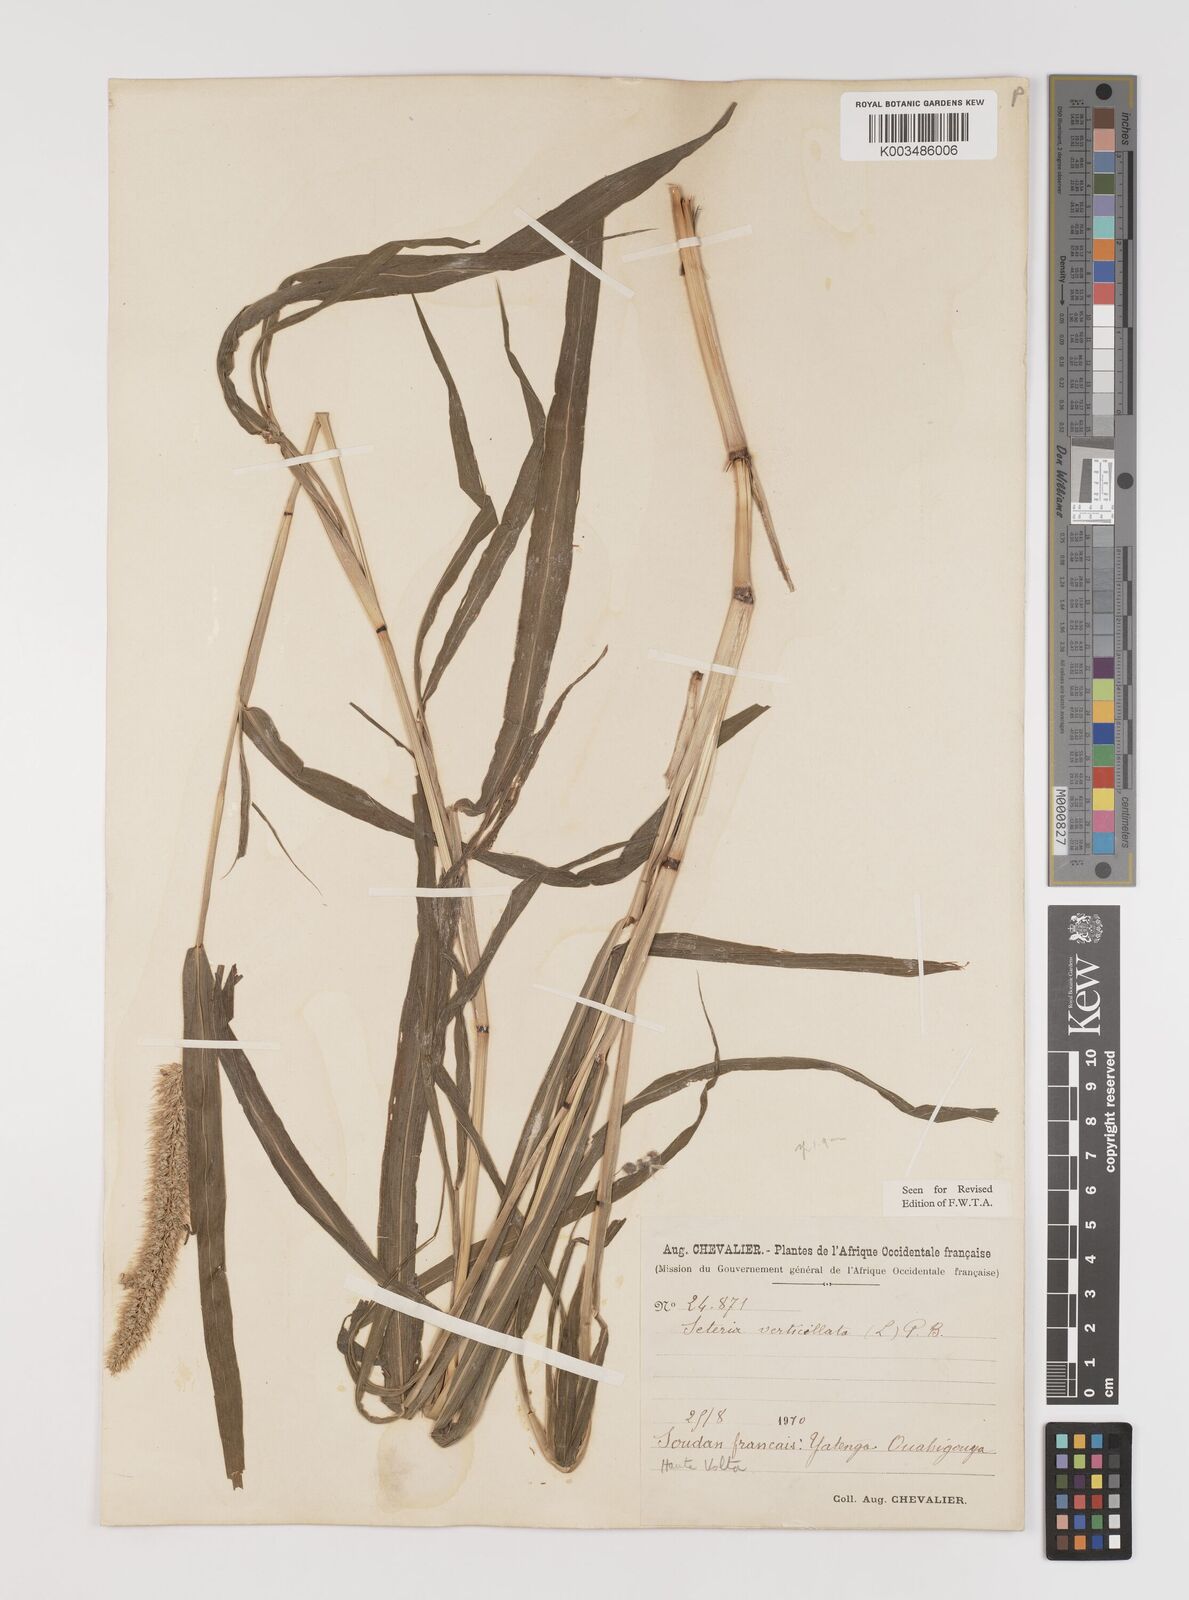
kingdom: Plantae
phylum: Tracheophyta
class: Liliopsida
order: Poales
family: Poaceae
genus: Setaria
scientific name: Setaria verticillata
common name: Hooked bristlegrass
